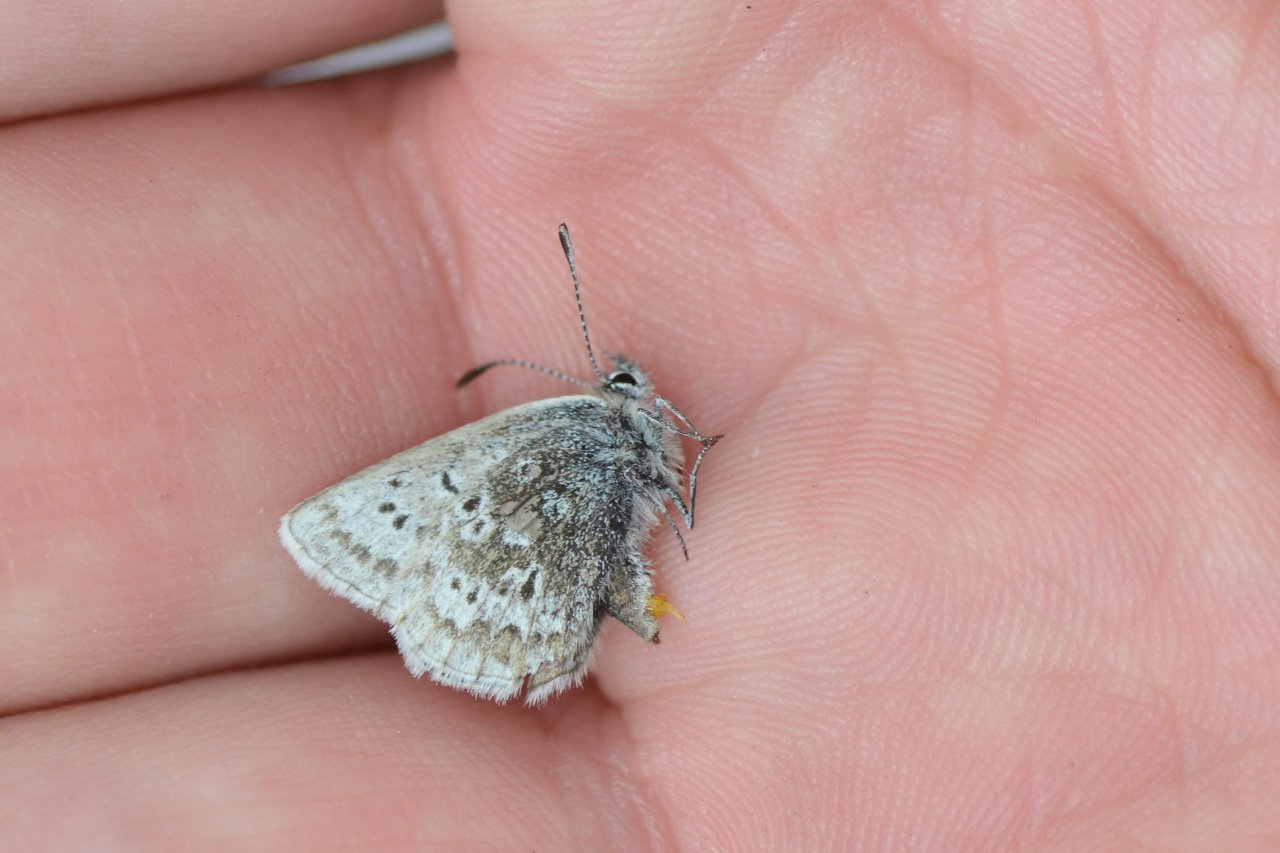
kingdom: Animalia
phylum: Arthropoda
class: Insecta
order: Lepidoptera
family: Lycaenidae
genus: Agriades
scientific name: Agriades glandon
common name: Arctic Blue
